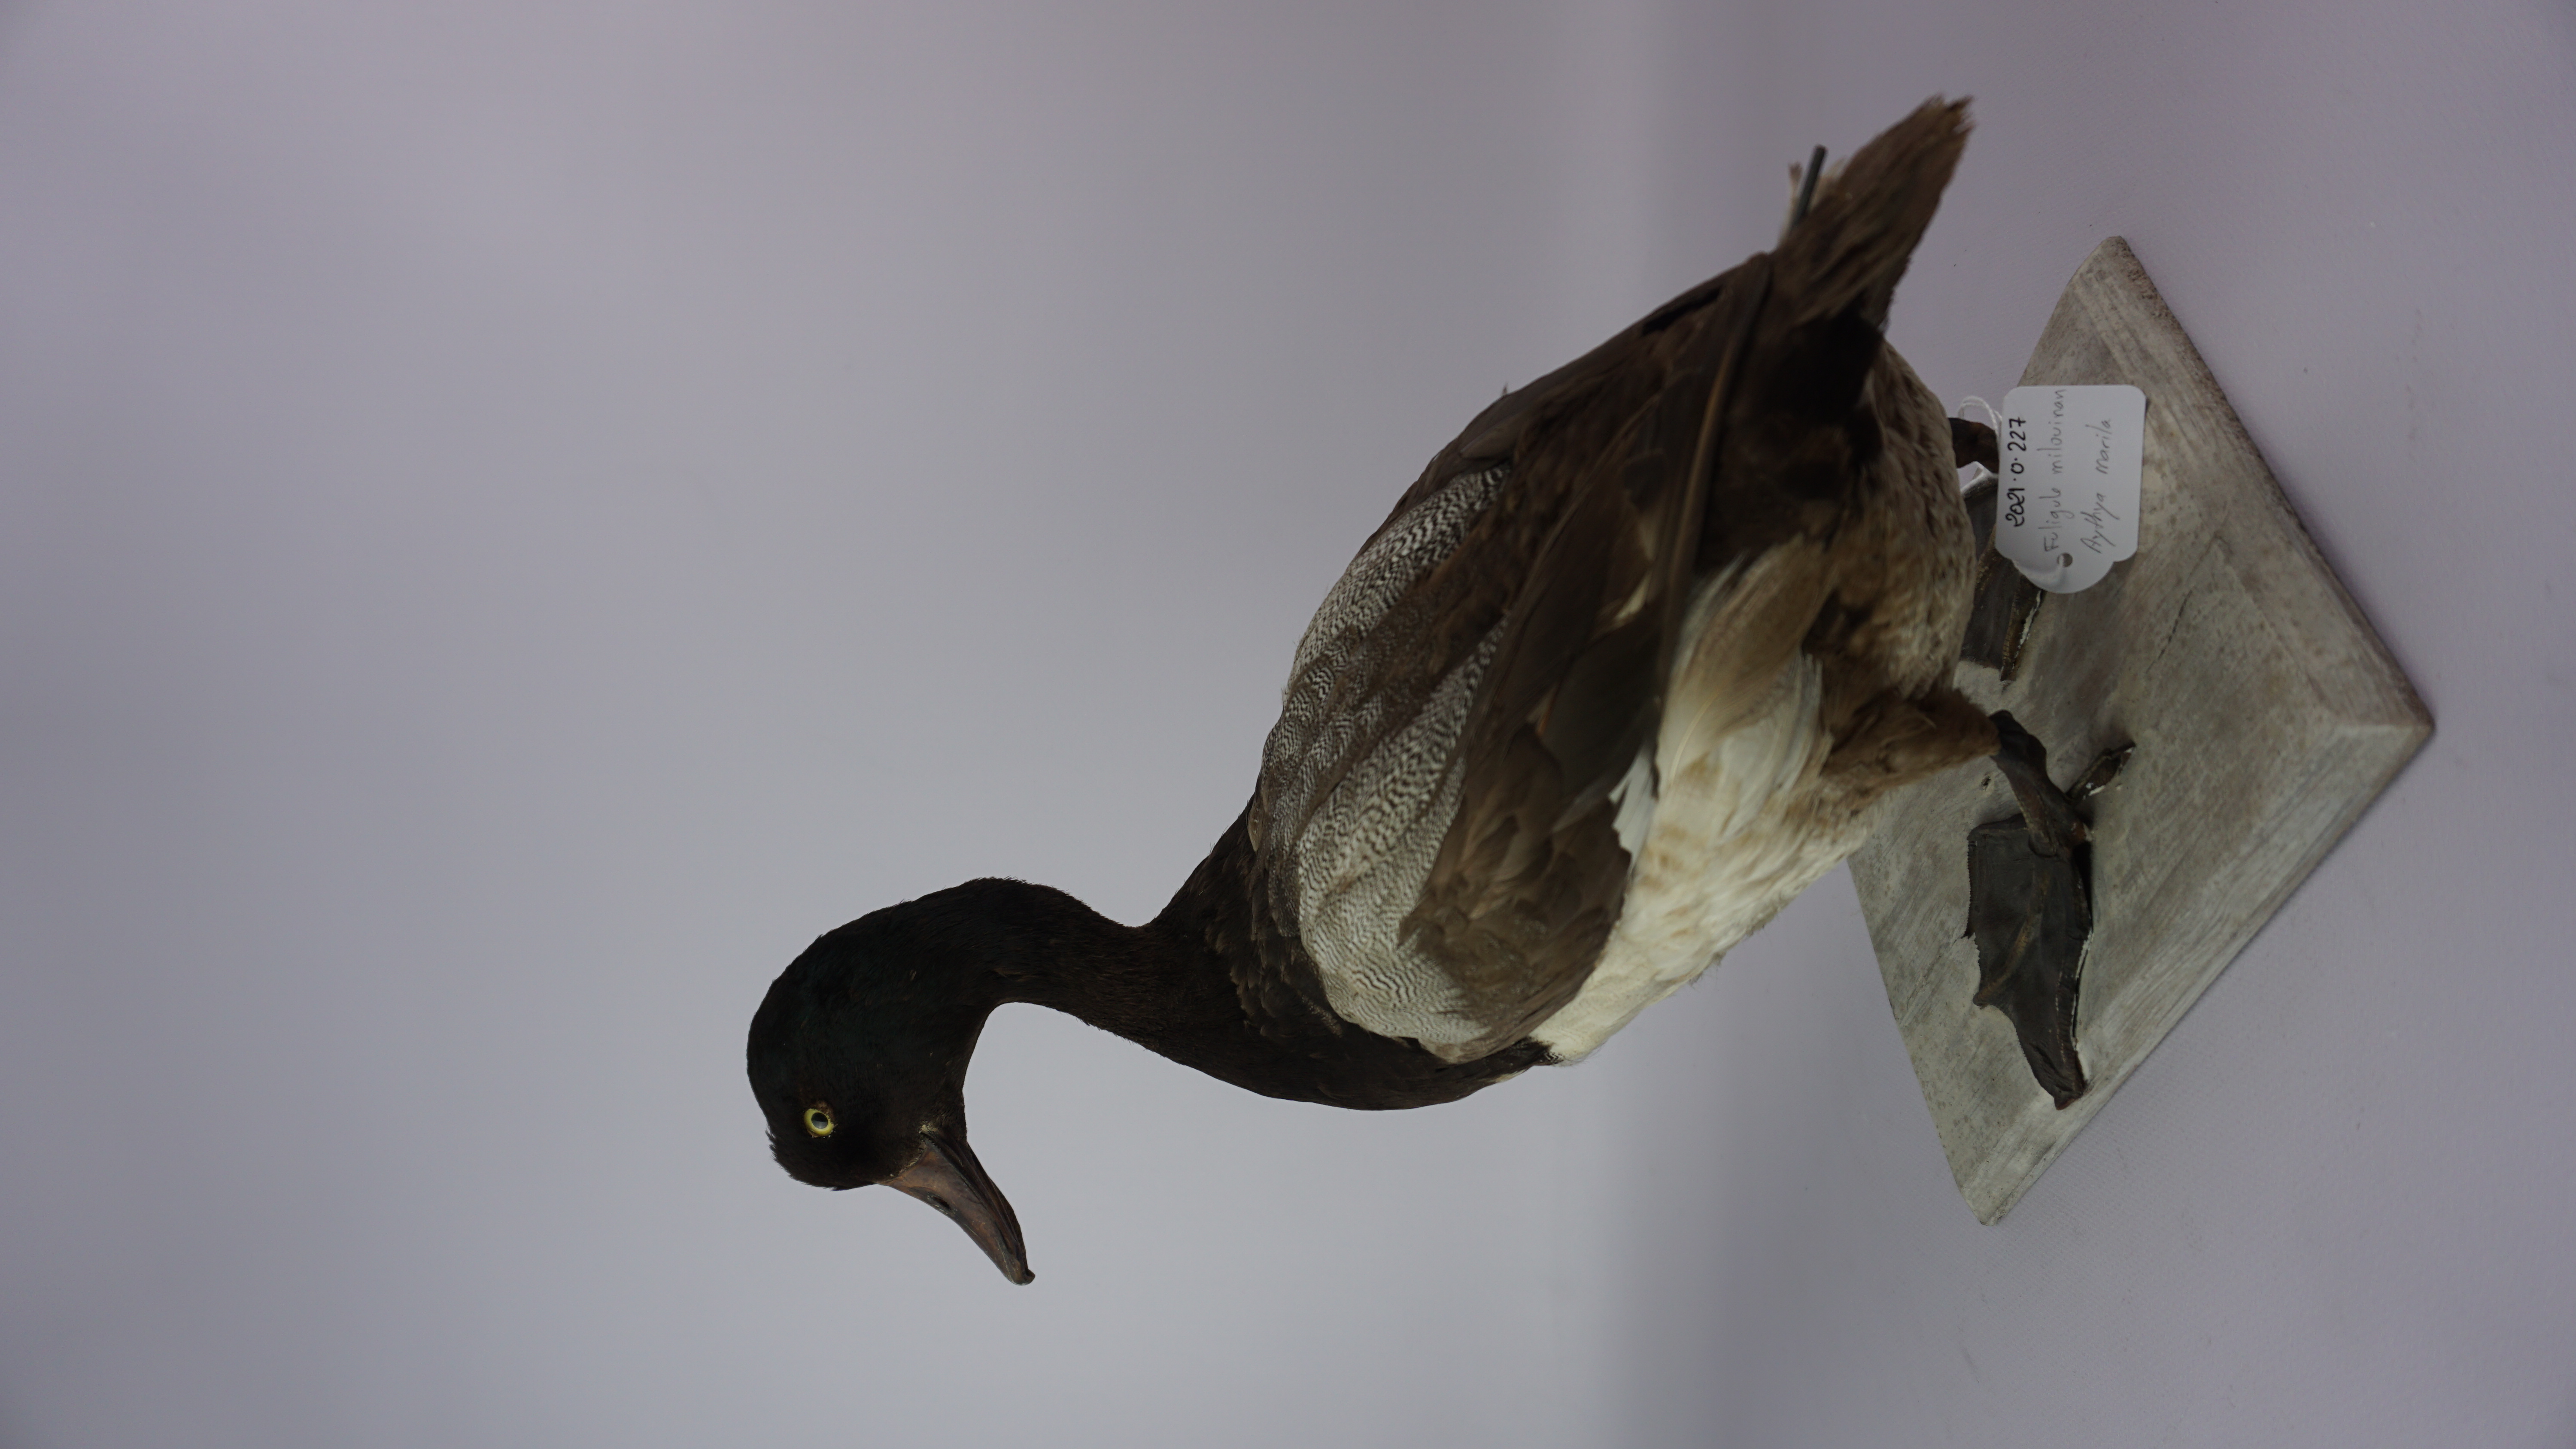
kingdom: Animalia
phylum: Chordata
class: Aves
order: Anseriformes
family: Anatidae
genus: Aythya
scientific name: Aythya marila
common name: Greater scaup
